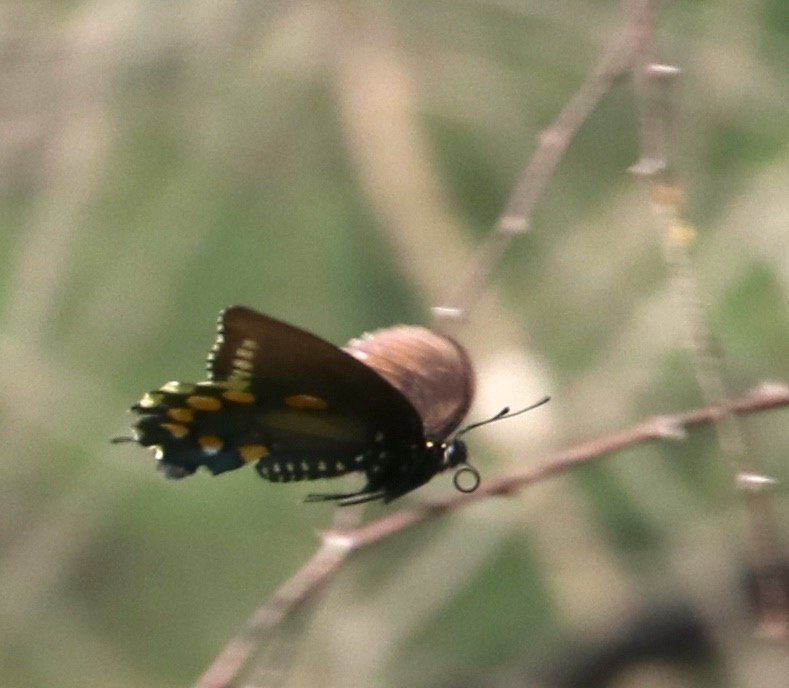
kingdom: Animalia
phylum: Arthropoda
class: Insecta
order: Lepidoptera
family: Papilionidae
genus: Battus
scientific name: Battus philenor
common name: Pipevine Swallowtail
